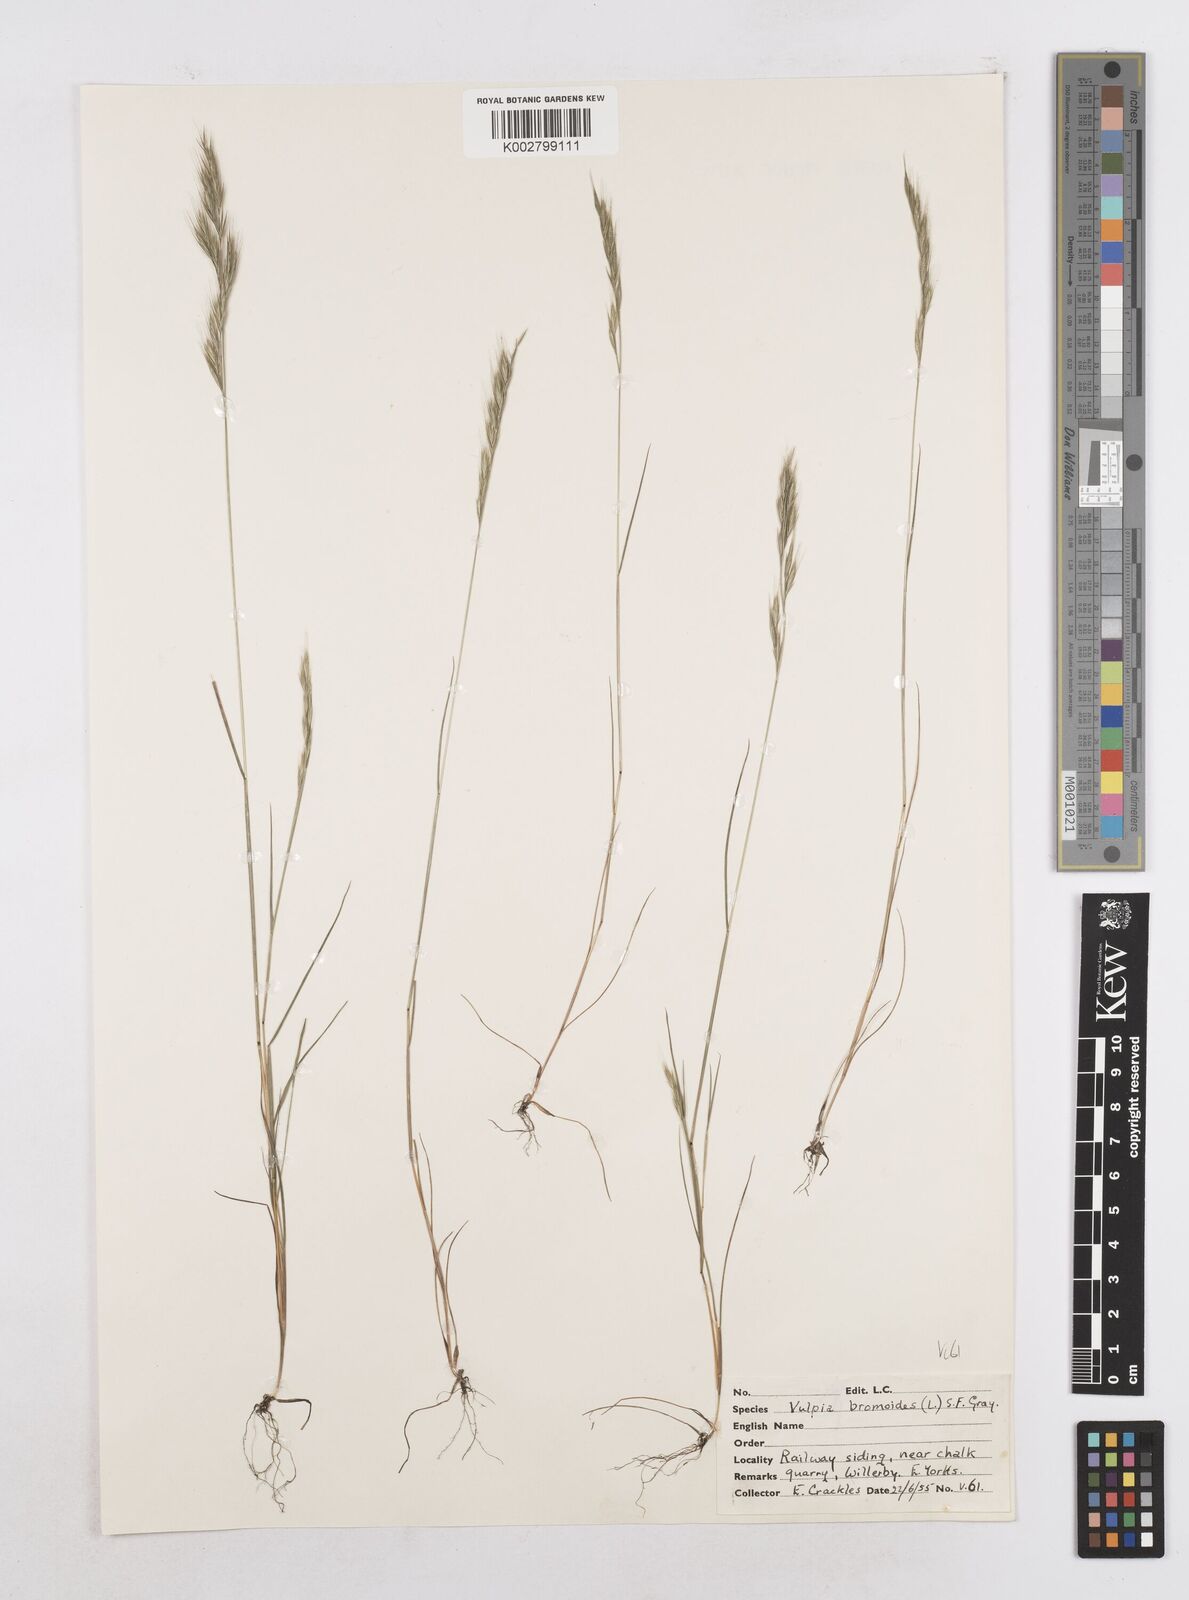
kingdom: Plantae
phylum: Tracheophyta
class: Liliopsida
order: Poales
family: Poaceae
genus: Festuca
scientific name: Festuca bromoides
